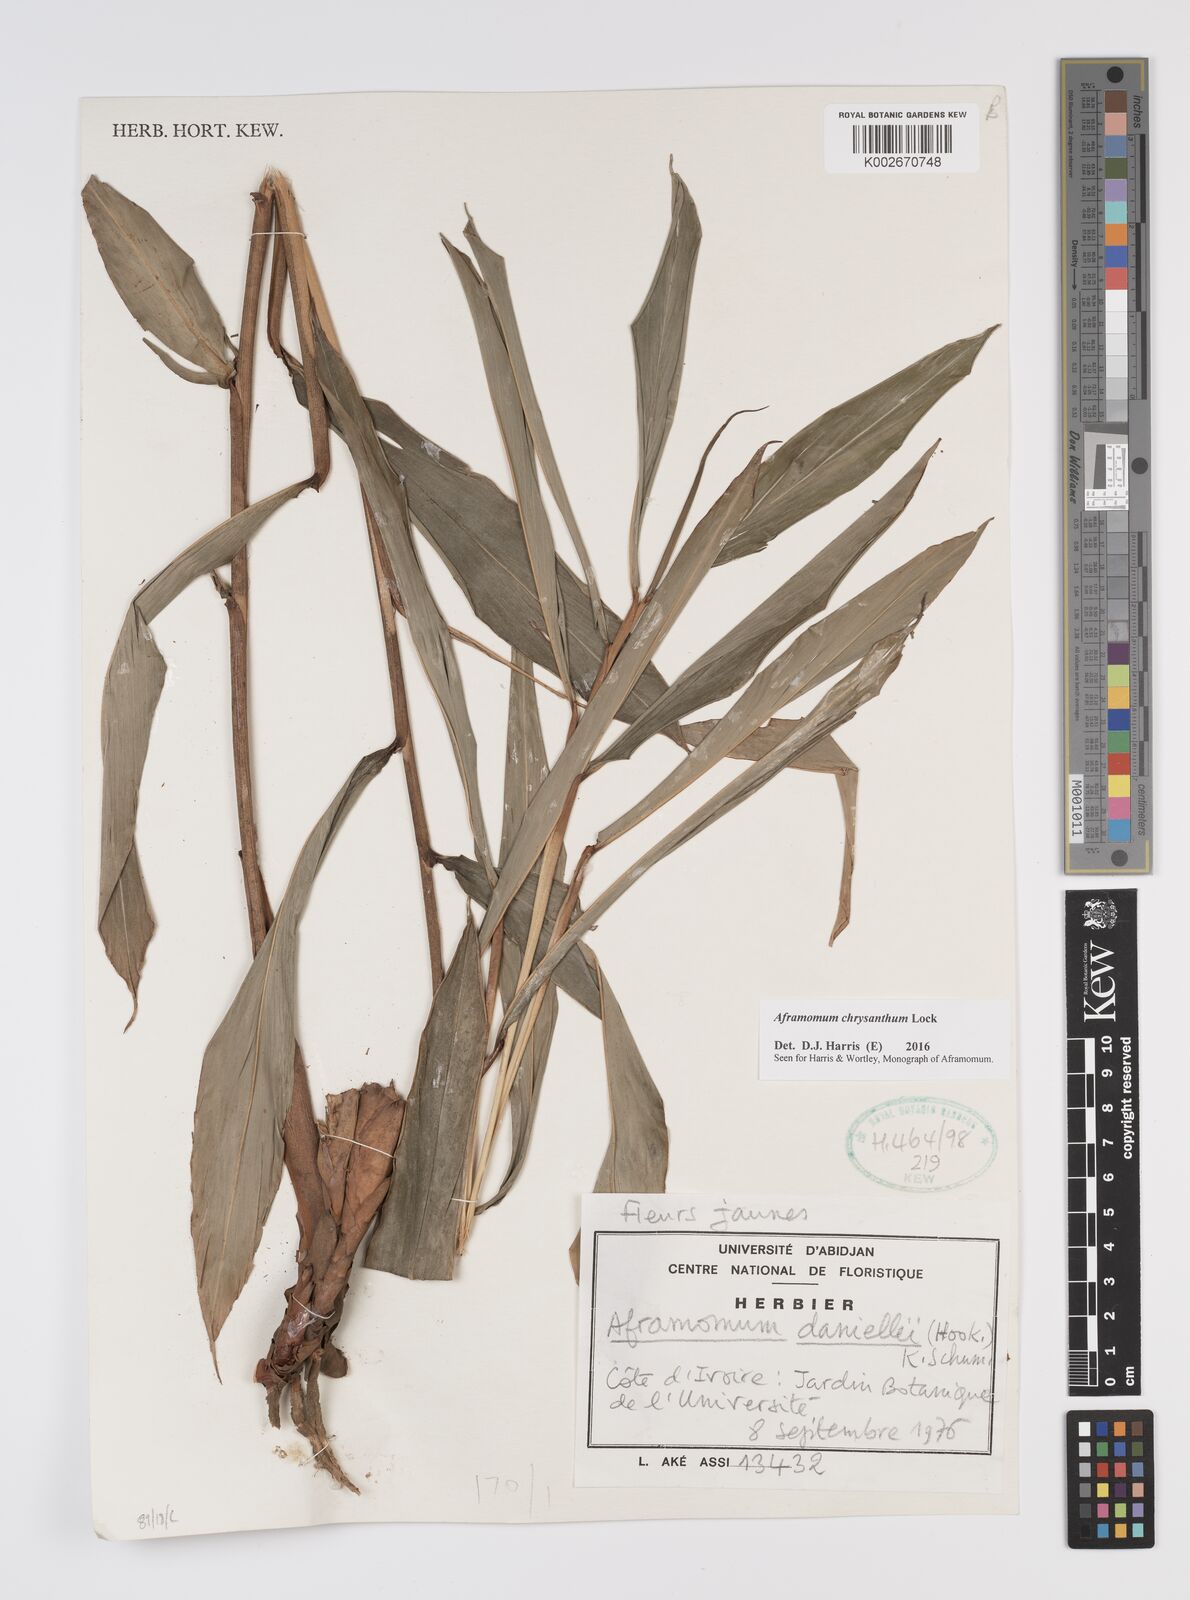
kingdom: Plantae
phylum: Tracheophyta
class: Liliopsida
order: Zingiberales
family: Zingiberaceae
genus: Aframomum
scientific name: Aframomum chrysanthum
